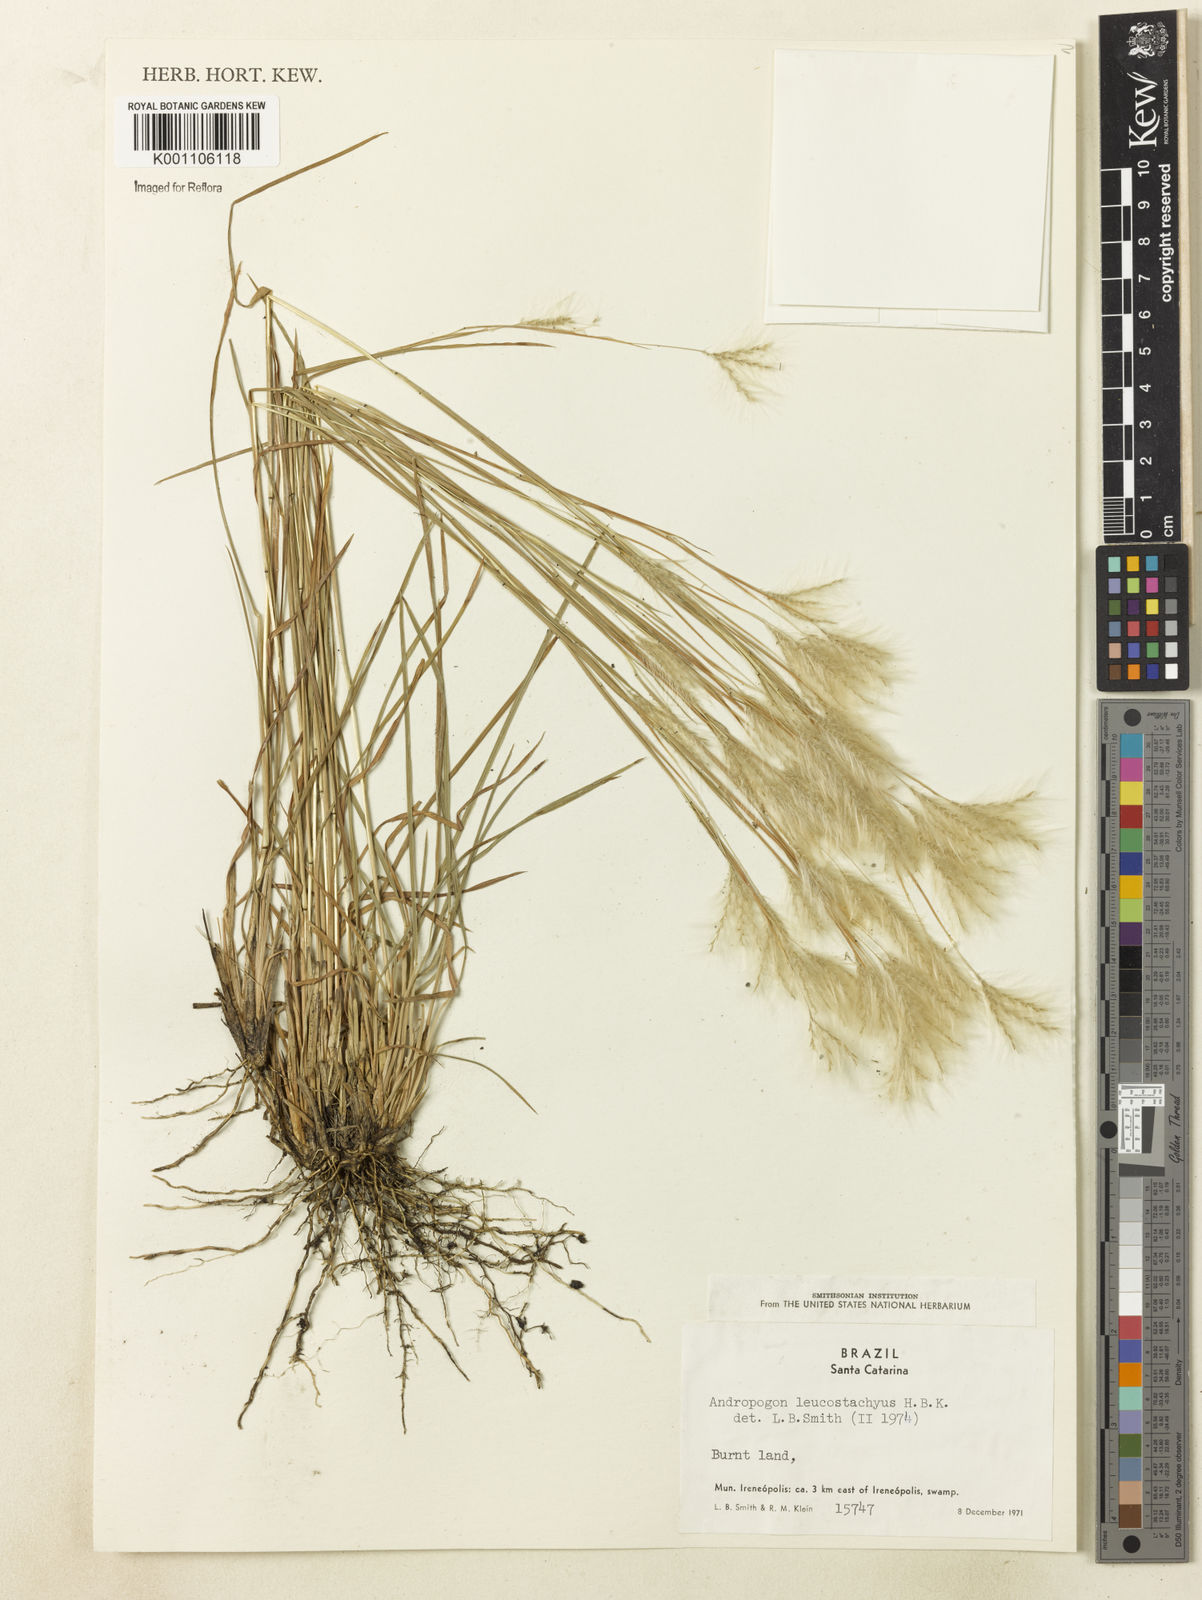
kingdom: Plantae
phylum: Tracheophyta
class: Liliopsida
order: Poales
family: Poaceae
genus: Andropogon
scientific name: Andropogon leucostachyus
